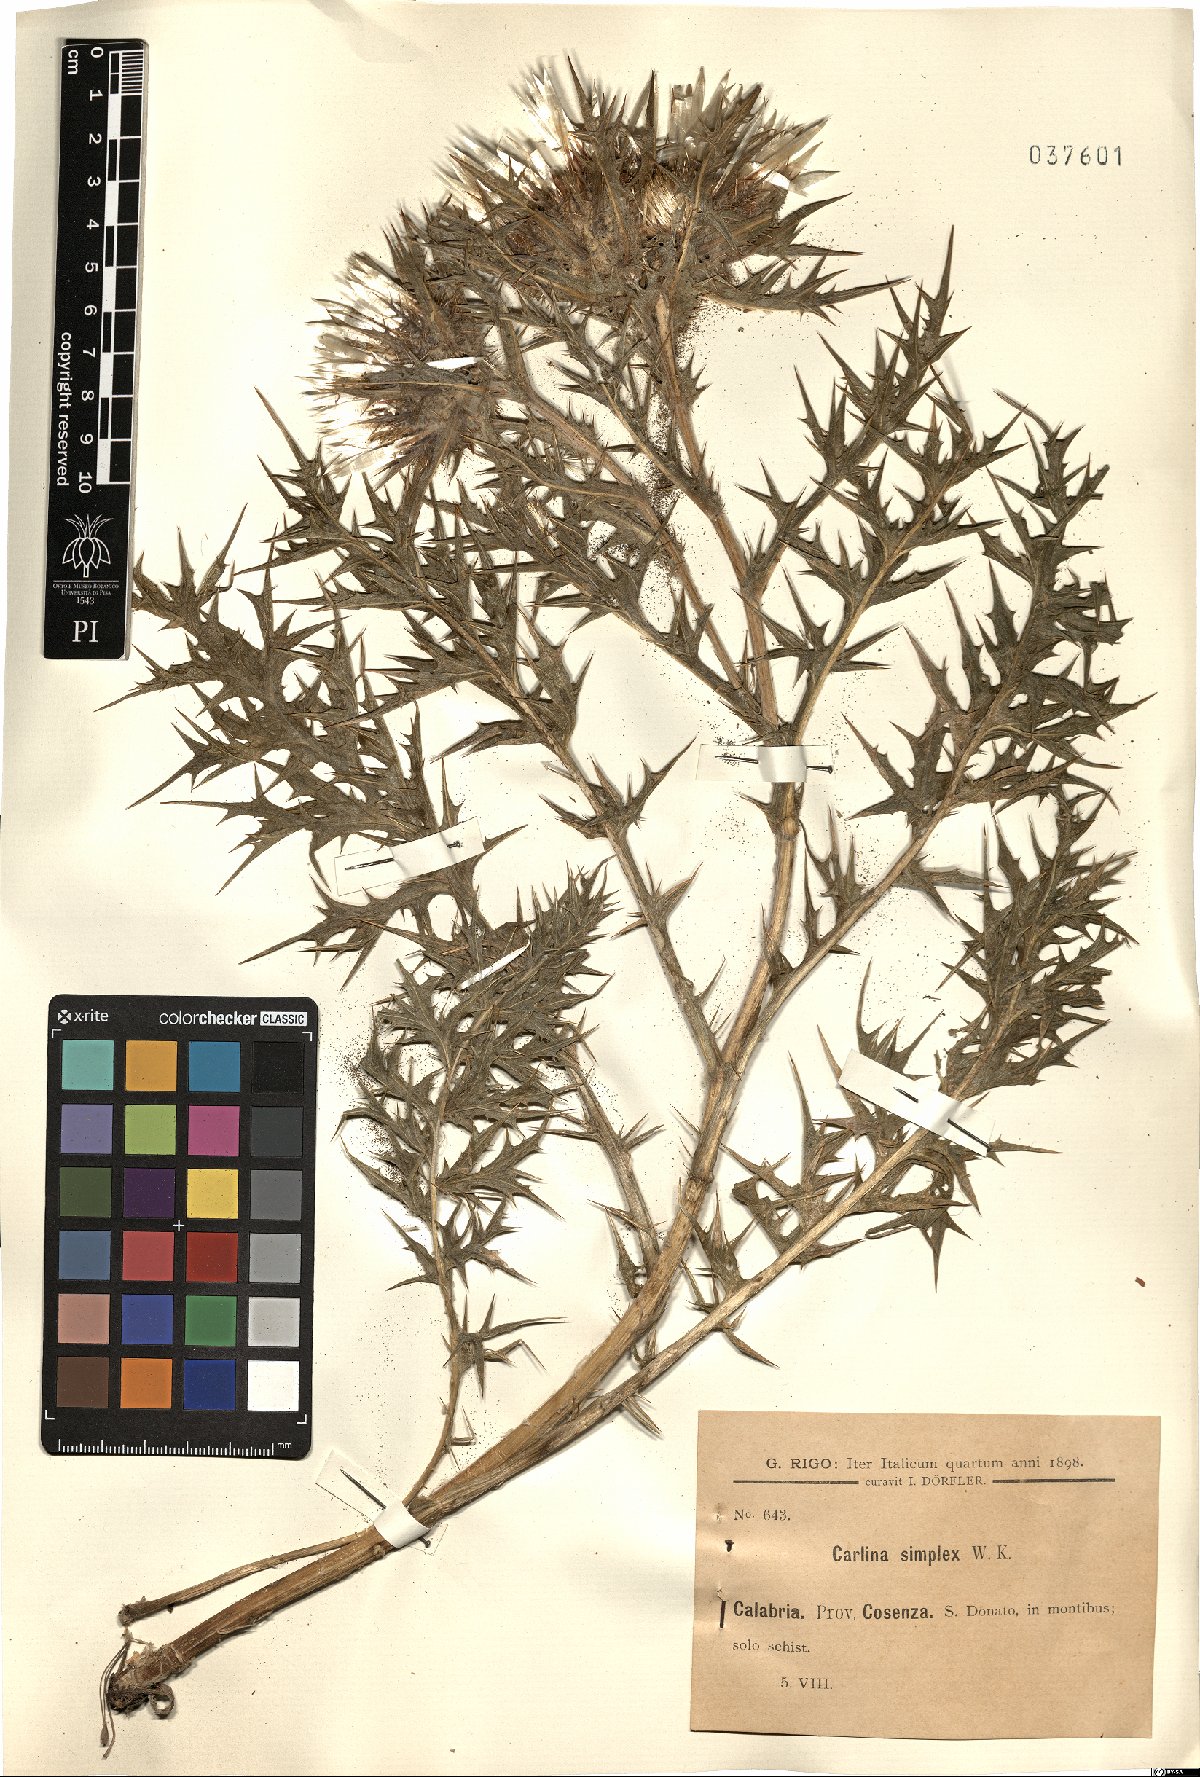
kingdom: Plantae
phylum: Tracheophyta
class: Magnoliopsida
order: Asterales
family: Asteraceae
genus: Carlina
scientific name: Carlina acaulis
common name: Stemless carline thistle
